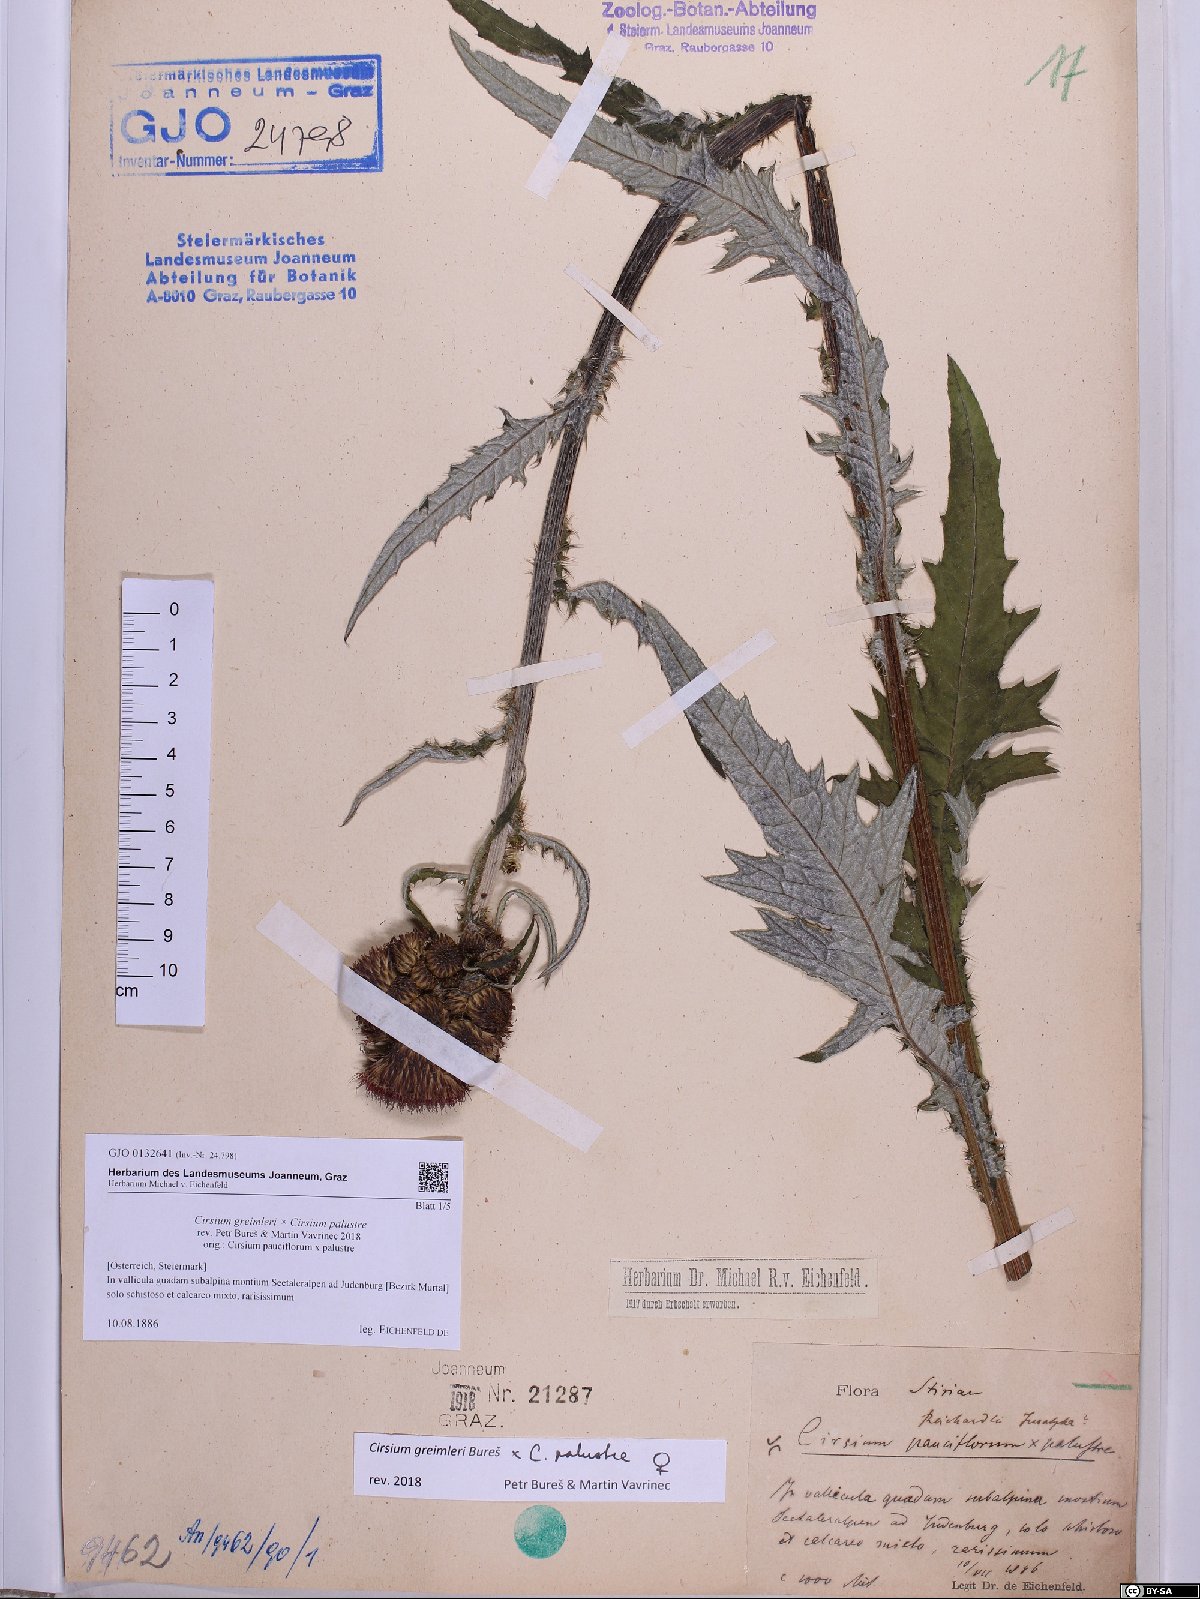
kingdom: Plantae
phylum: Tracheophyta
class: Magnoliopsida
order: Asterales
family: Asteraceae
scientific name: Asteraceae
